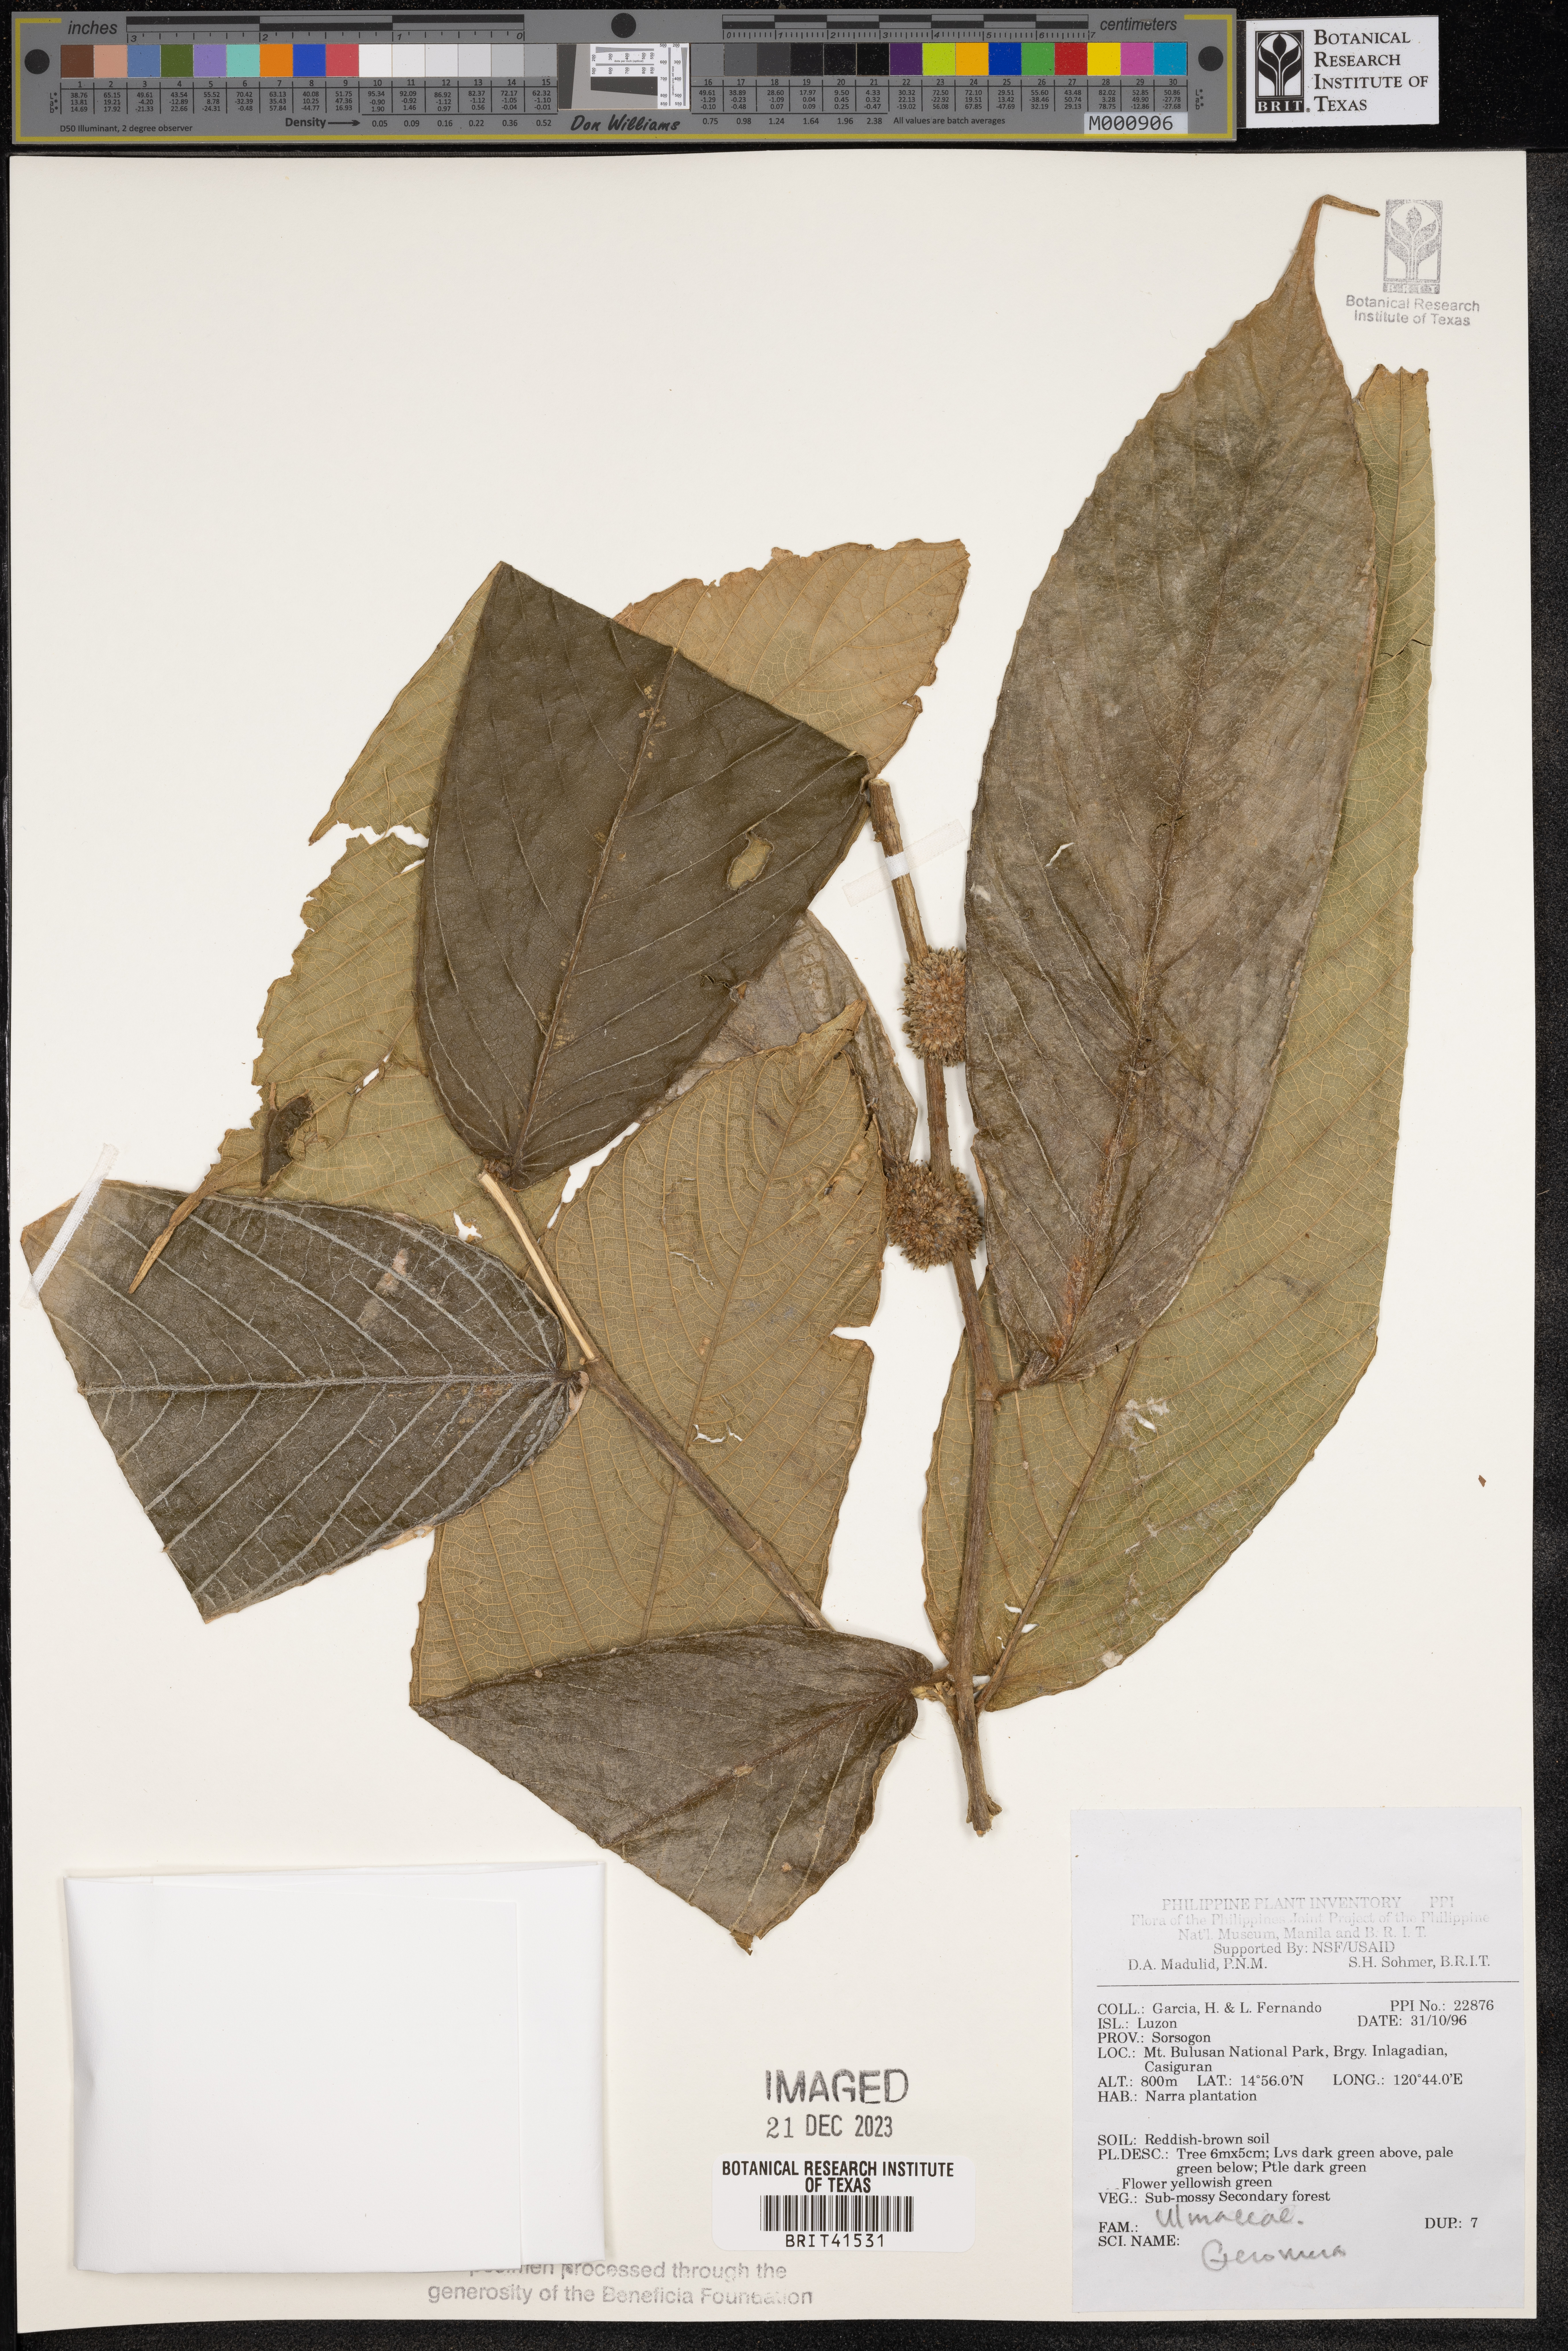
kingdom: Plantae
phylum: Tracheophyta
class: Magnoliopsida
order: Rosales
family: Cannabaceae
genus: Gironniera
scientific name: Gironniera
